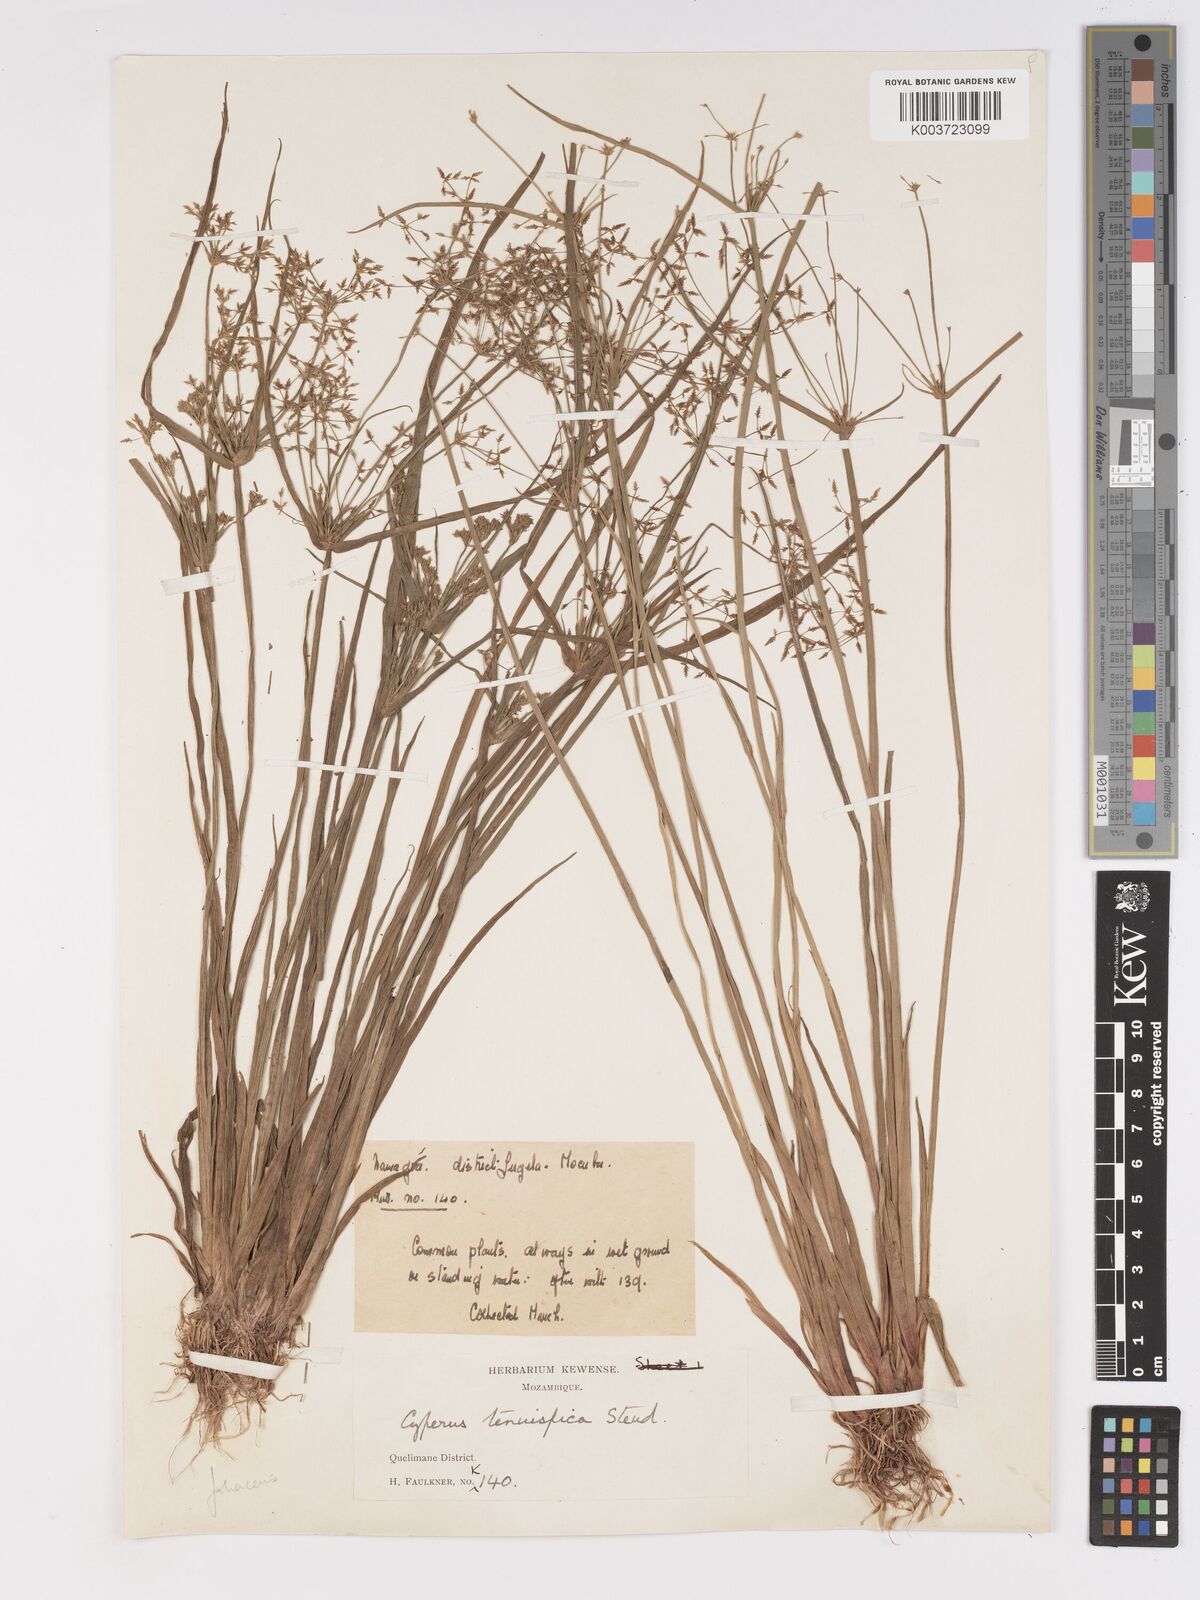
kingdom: Plantae
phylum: Tracheophyta
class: Liliopsida
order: Poales
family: Cyperaceae
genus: Cyperus
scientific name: Cyperus haspan
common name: Haspan flatsedge
